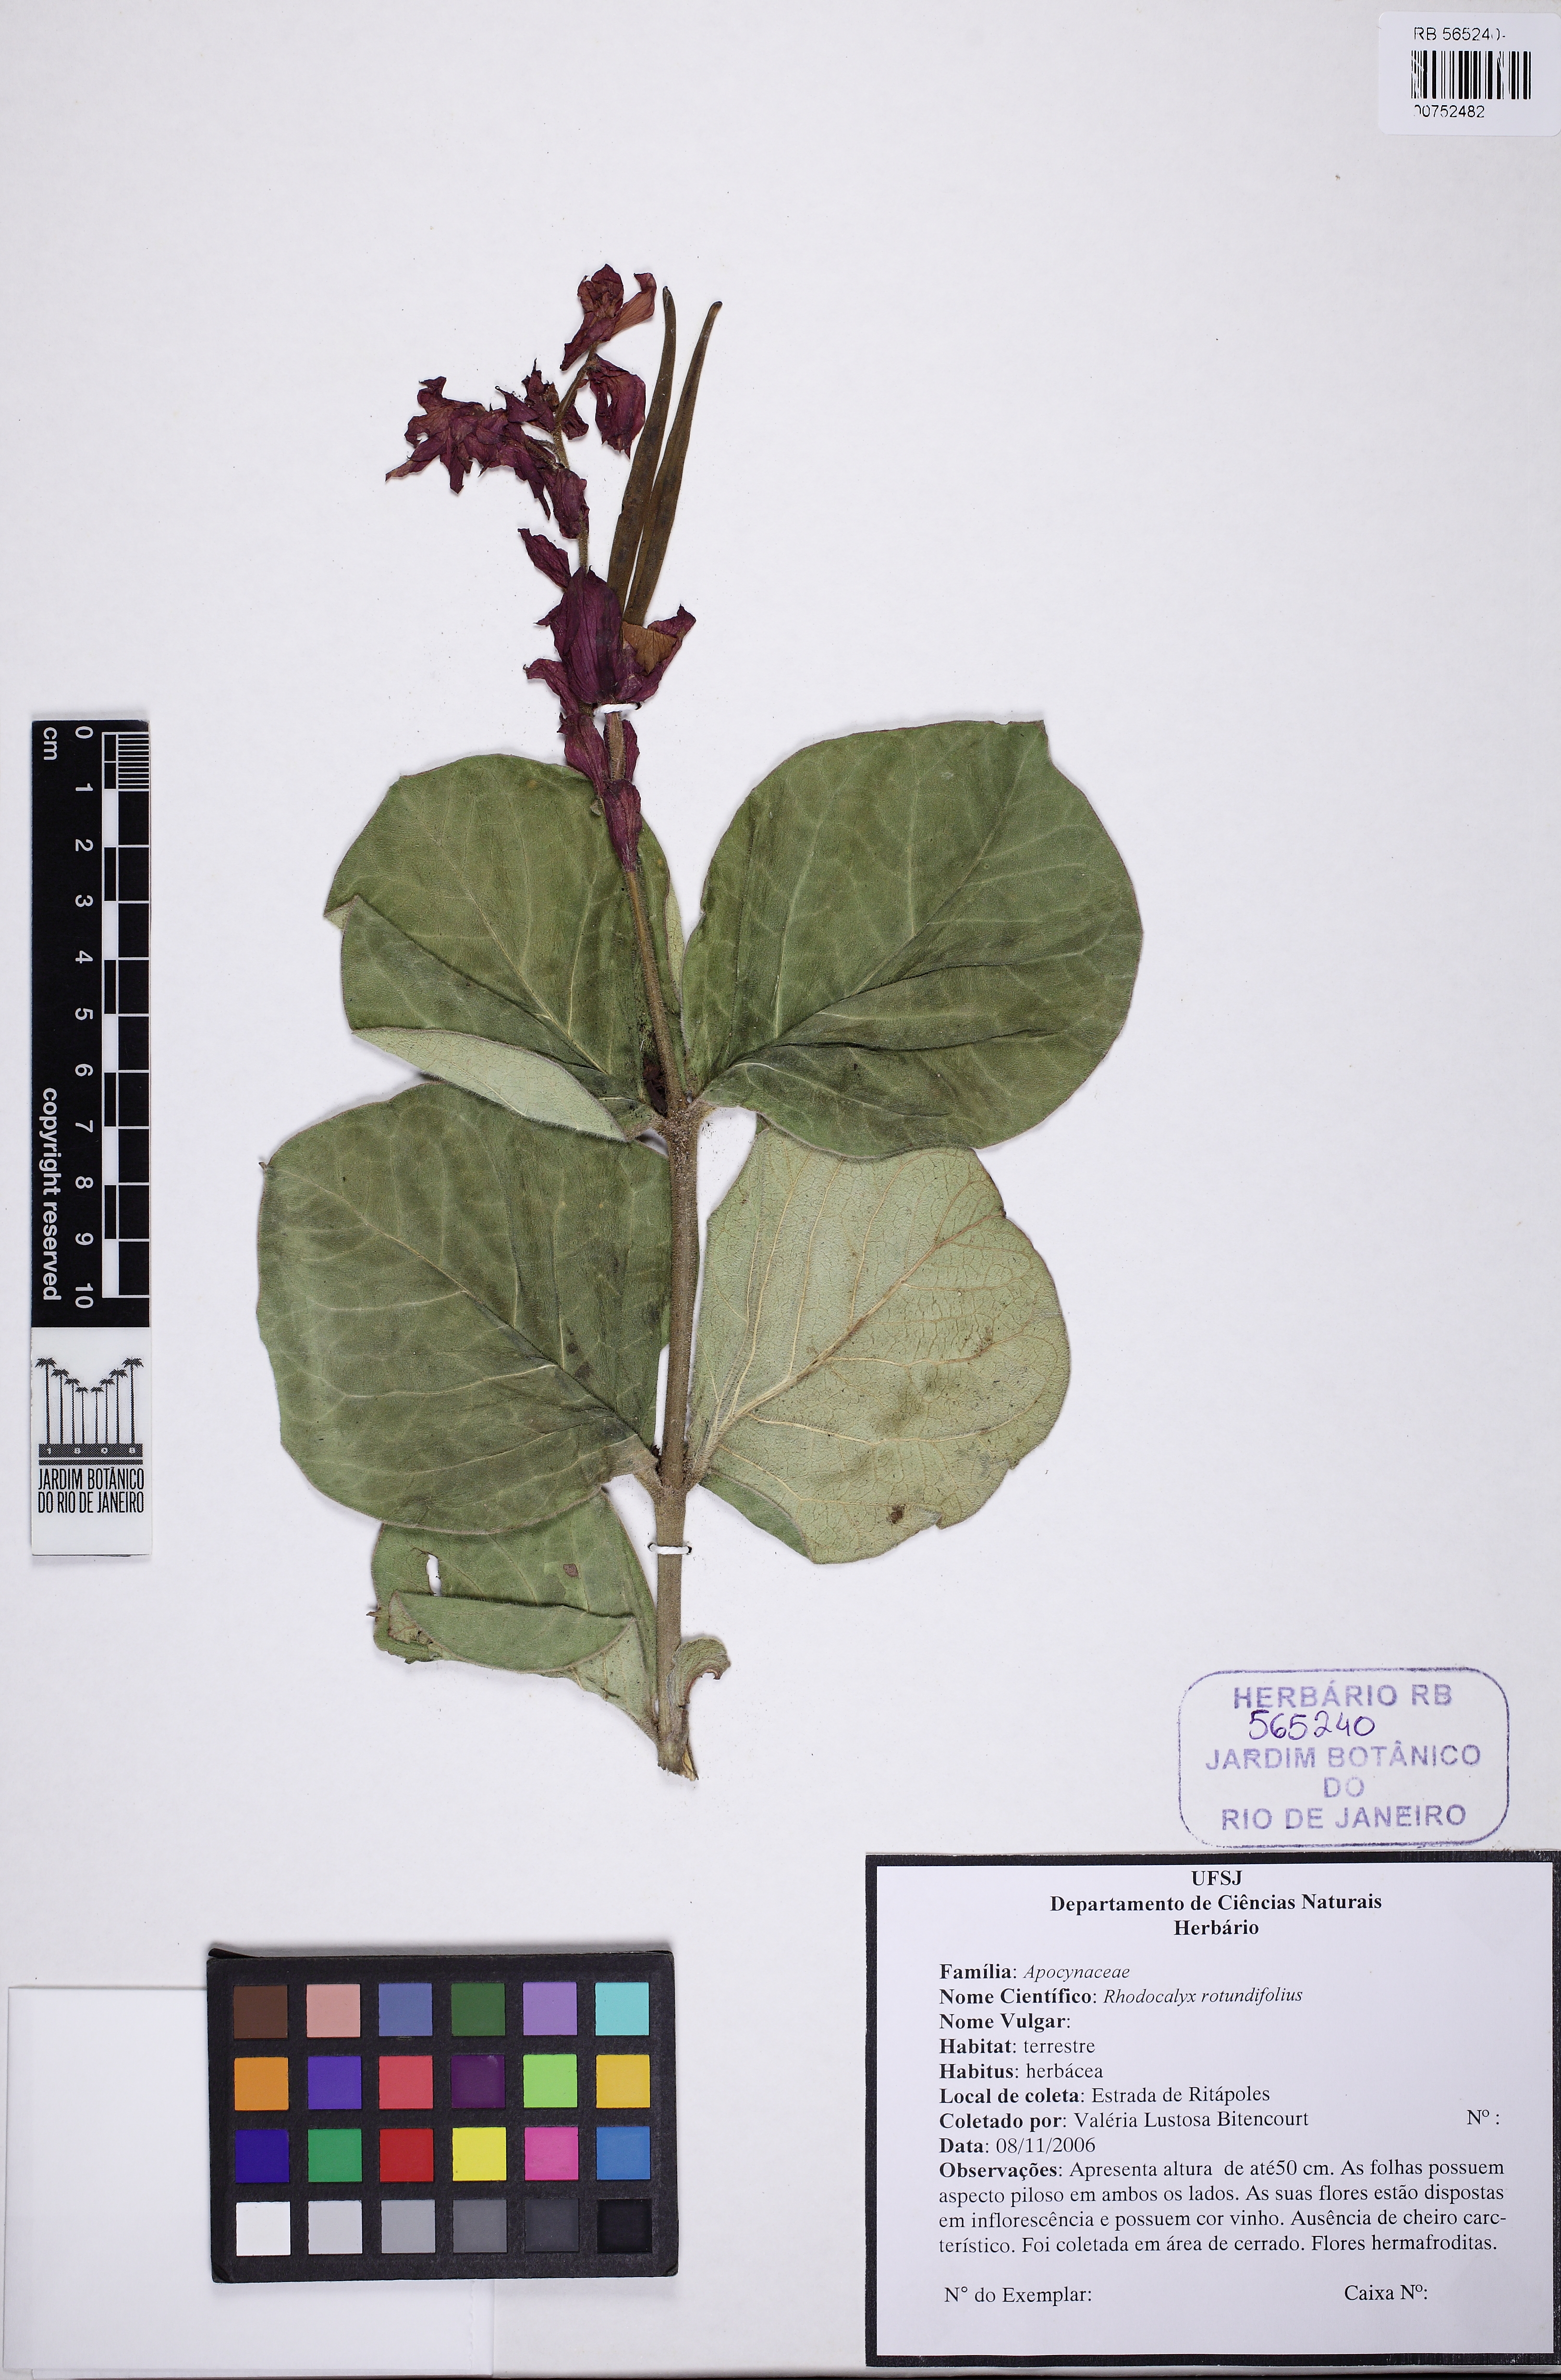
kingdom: Plantae
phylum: Tracheophyta
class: Magnoliopsida
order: Gentianales
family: Apocynaceae
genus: Prestonia
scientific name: Prestonia erecta
